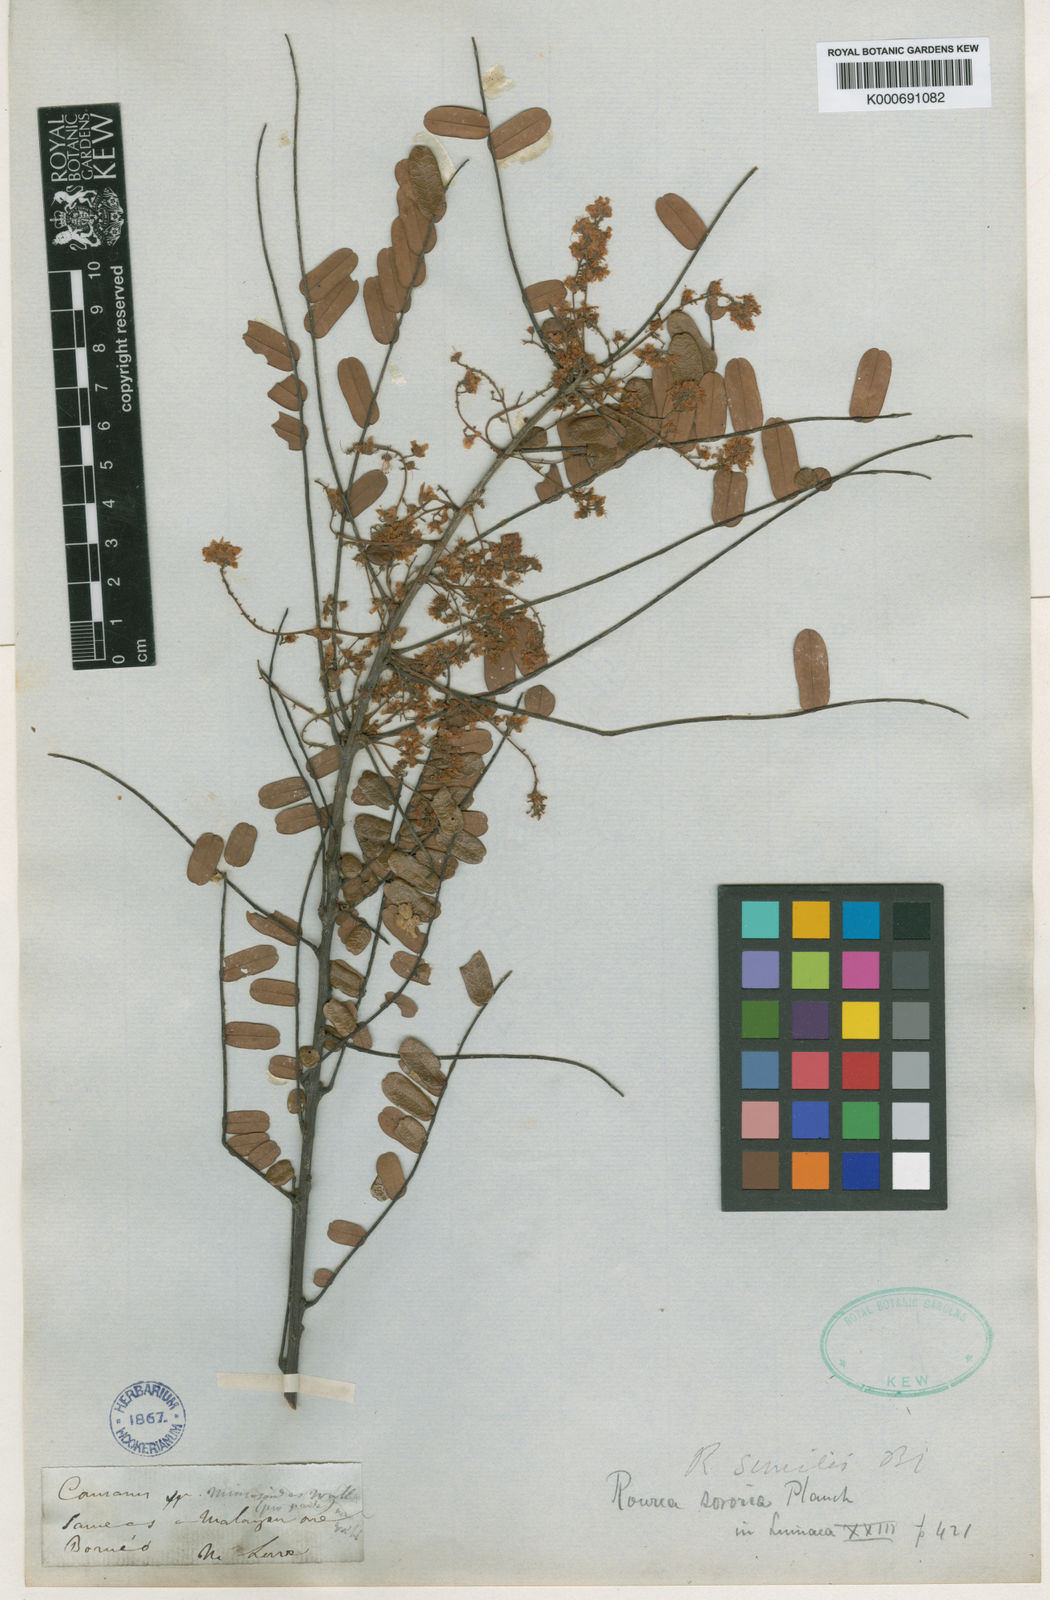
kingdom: Plantae
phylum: Tracheophyta
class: Magnoliopsida
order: Oxalidales
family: Connaraceae
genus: Rourea
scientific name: Rourea mimosoides
